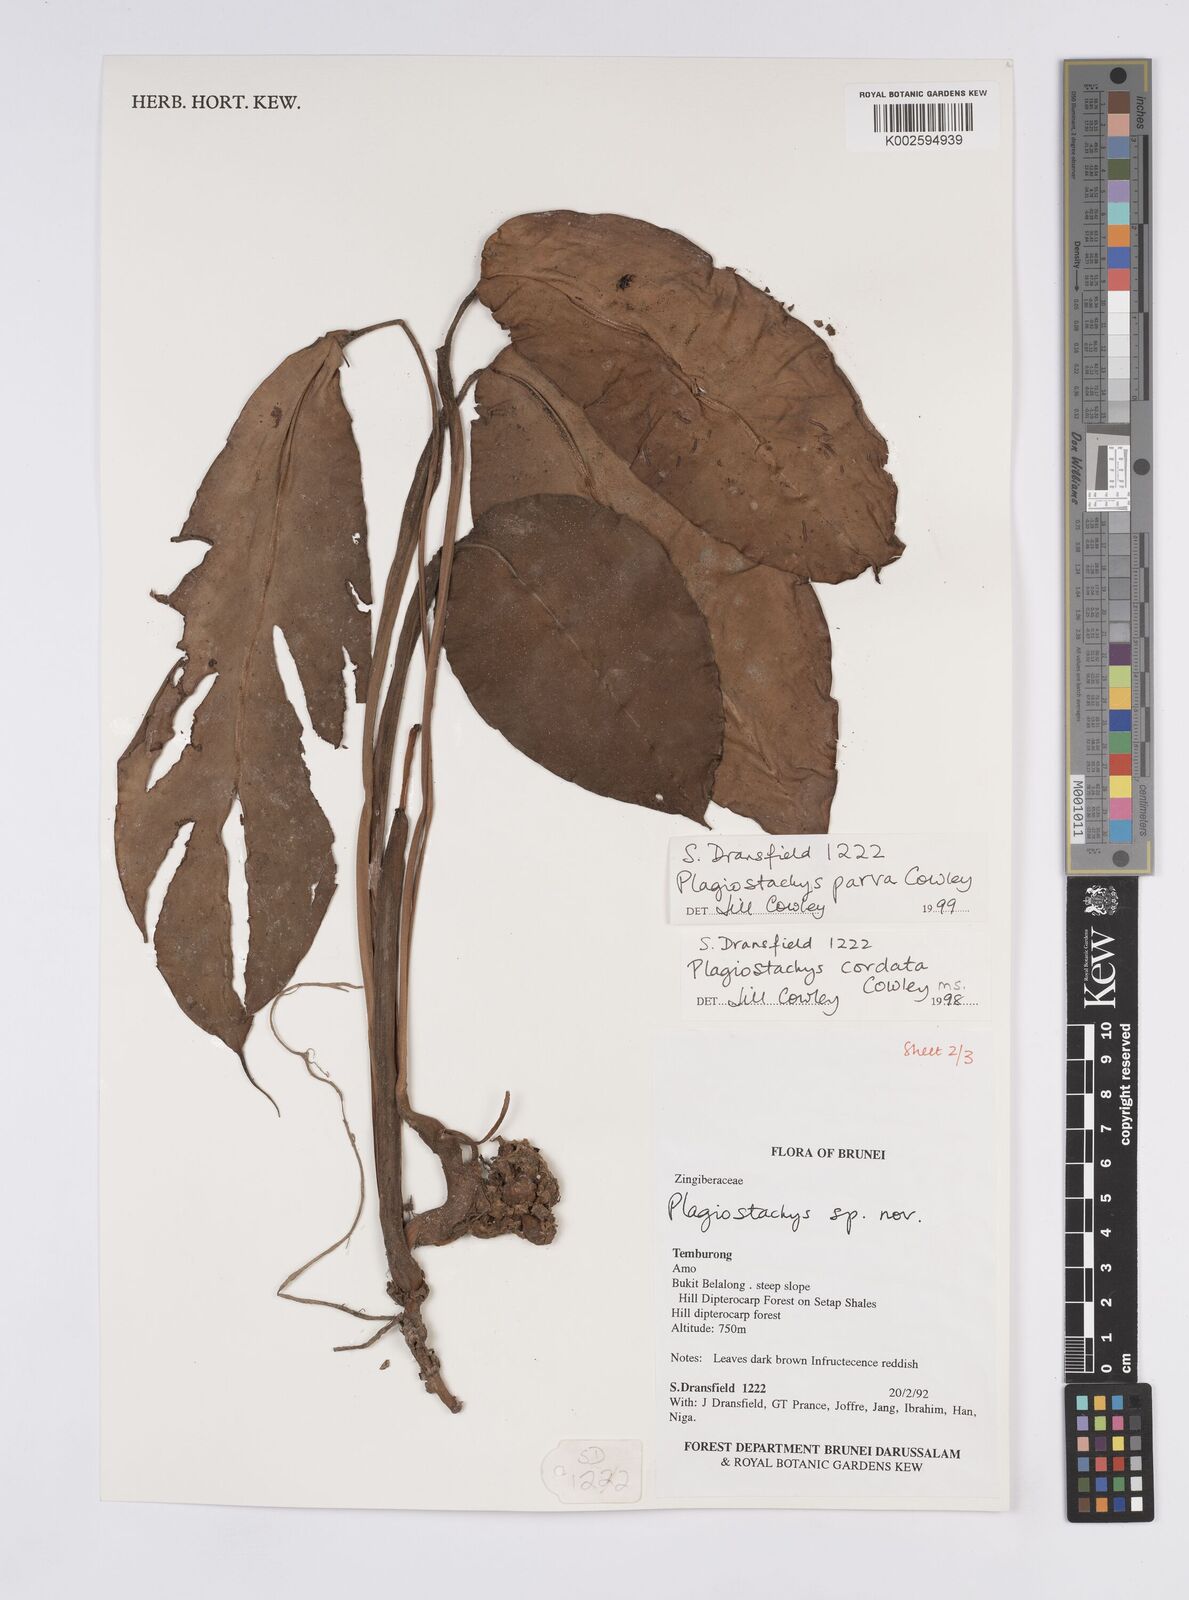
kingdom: Plantae
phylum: Tracheophyta
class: Liliopsida
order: Zingiberales
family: Zingiberaceae
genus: Plagiostachys
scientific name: Plagiostachys parva
